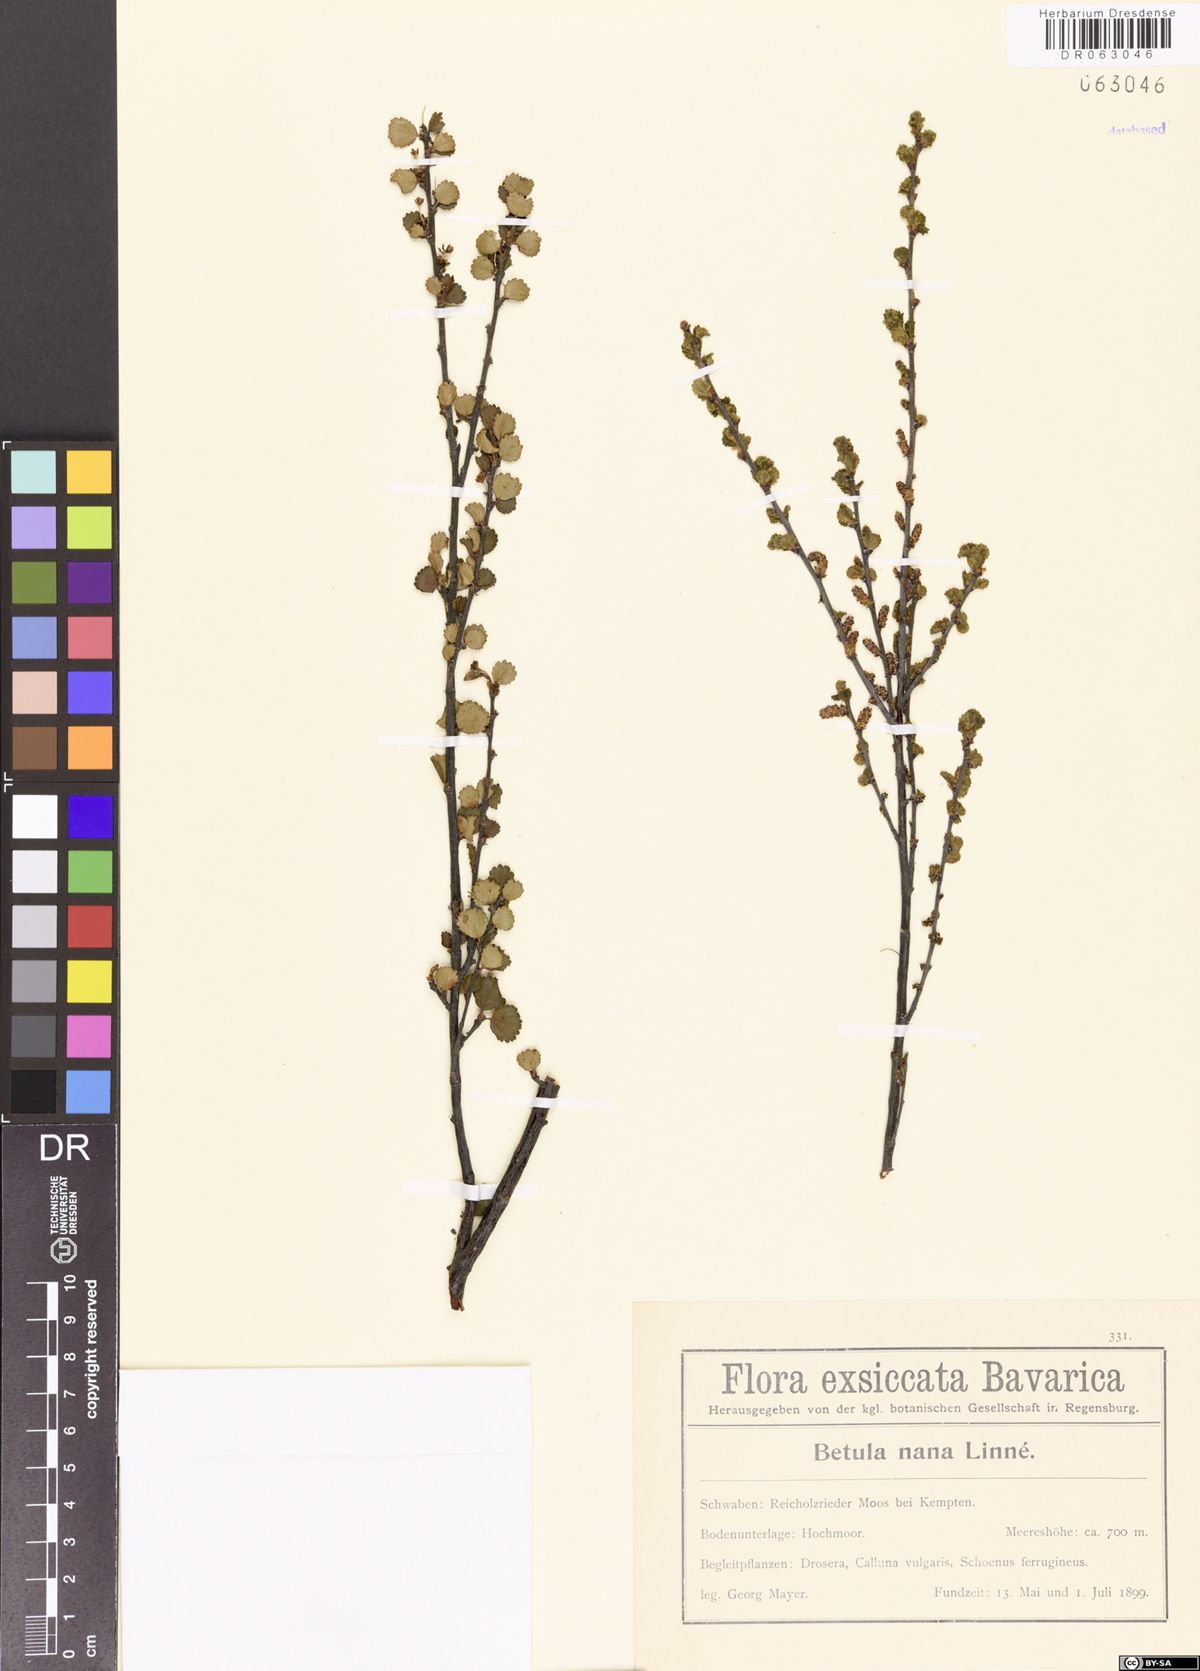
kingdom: Plantae
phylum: Tracheophyta
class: Magnoliopsida
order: Fagales
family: Betulaceae
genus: Betula
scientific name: Betula nana
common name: Arctic dwarf birch
